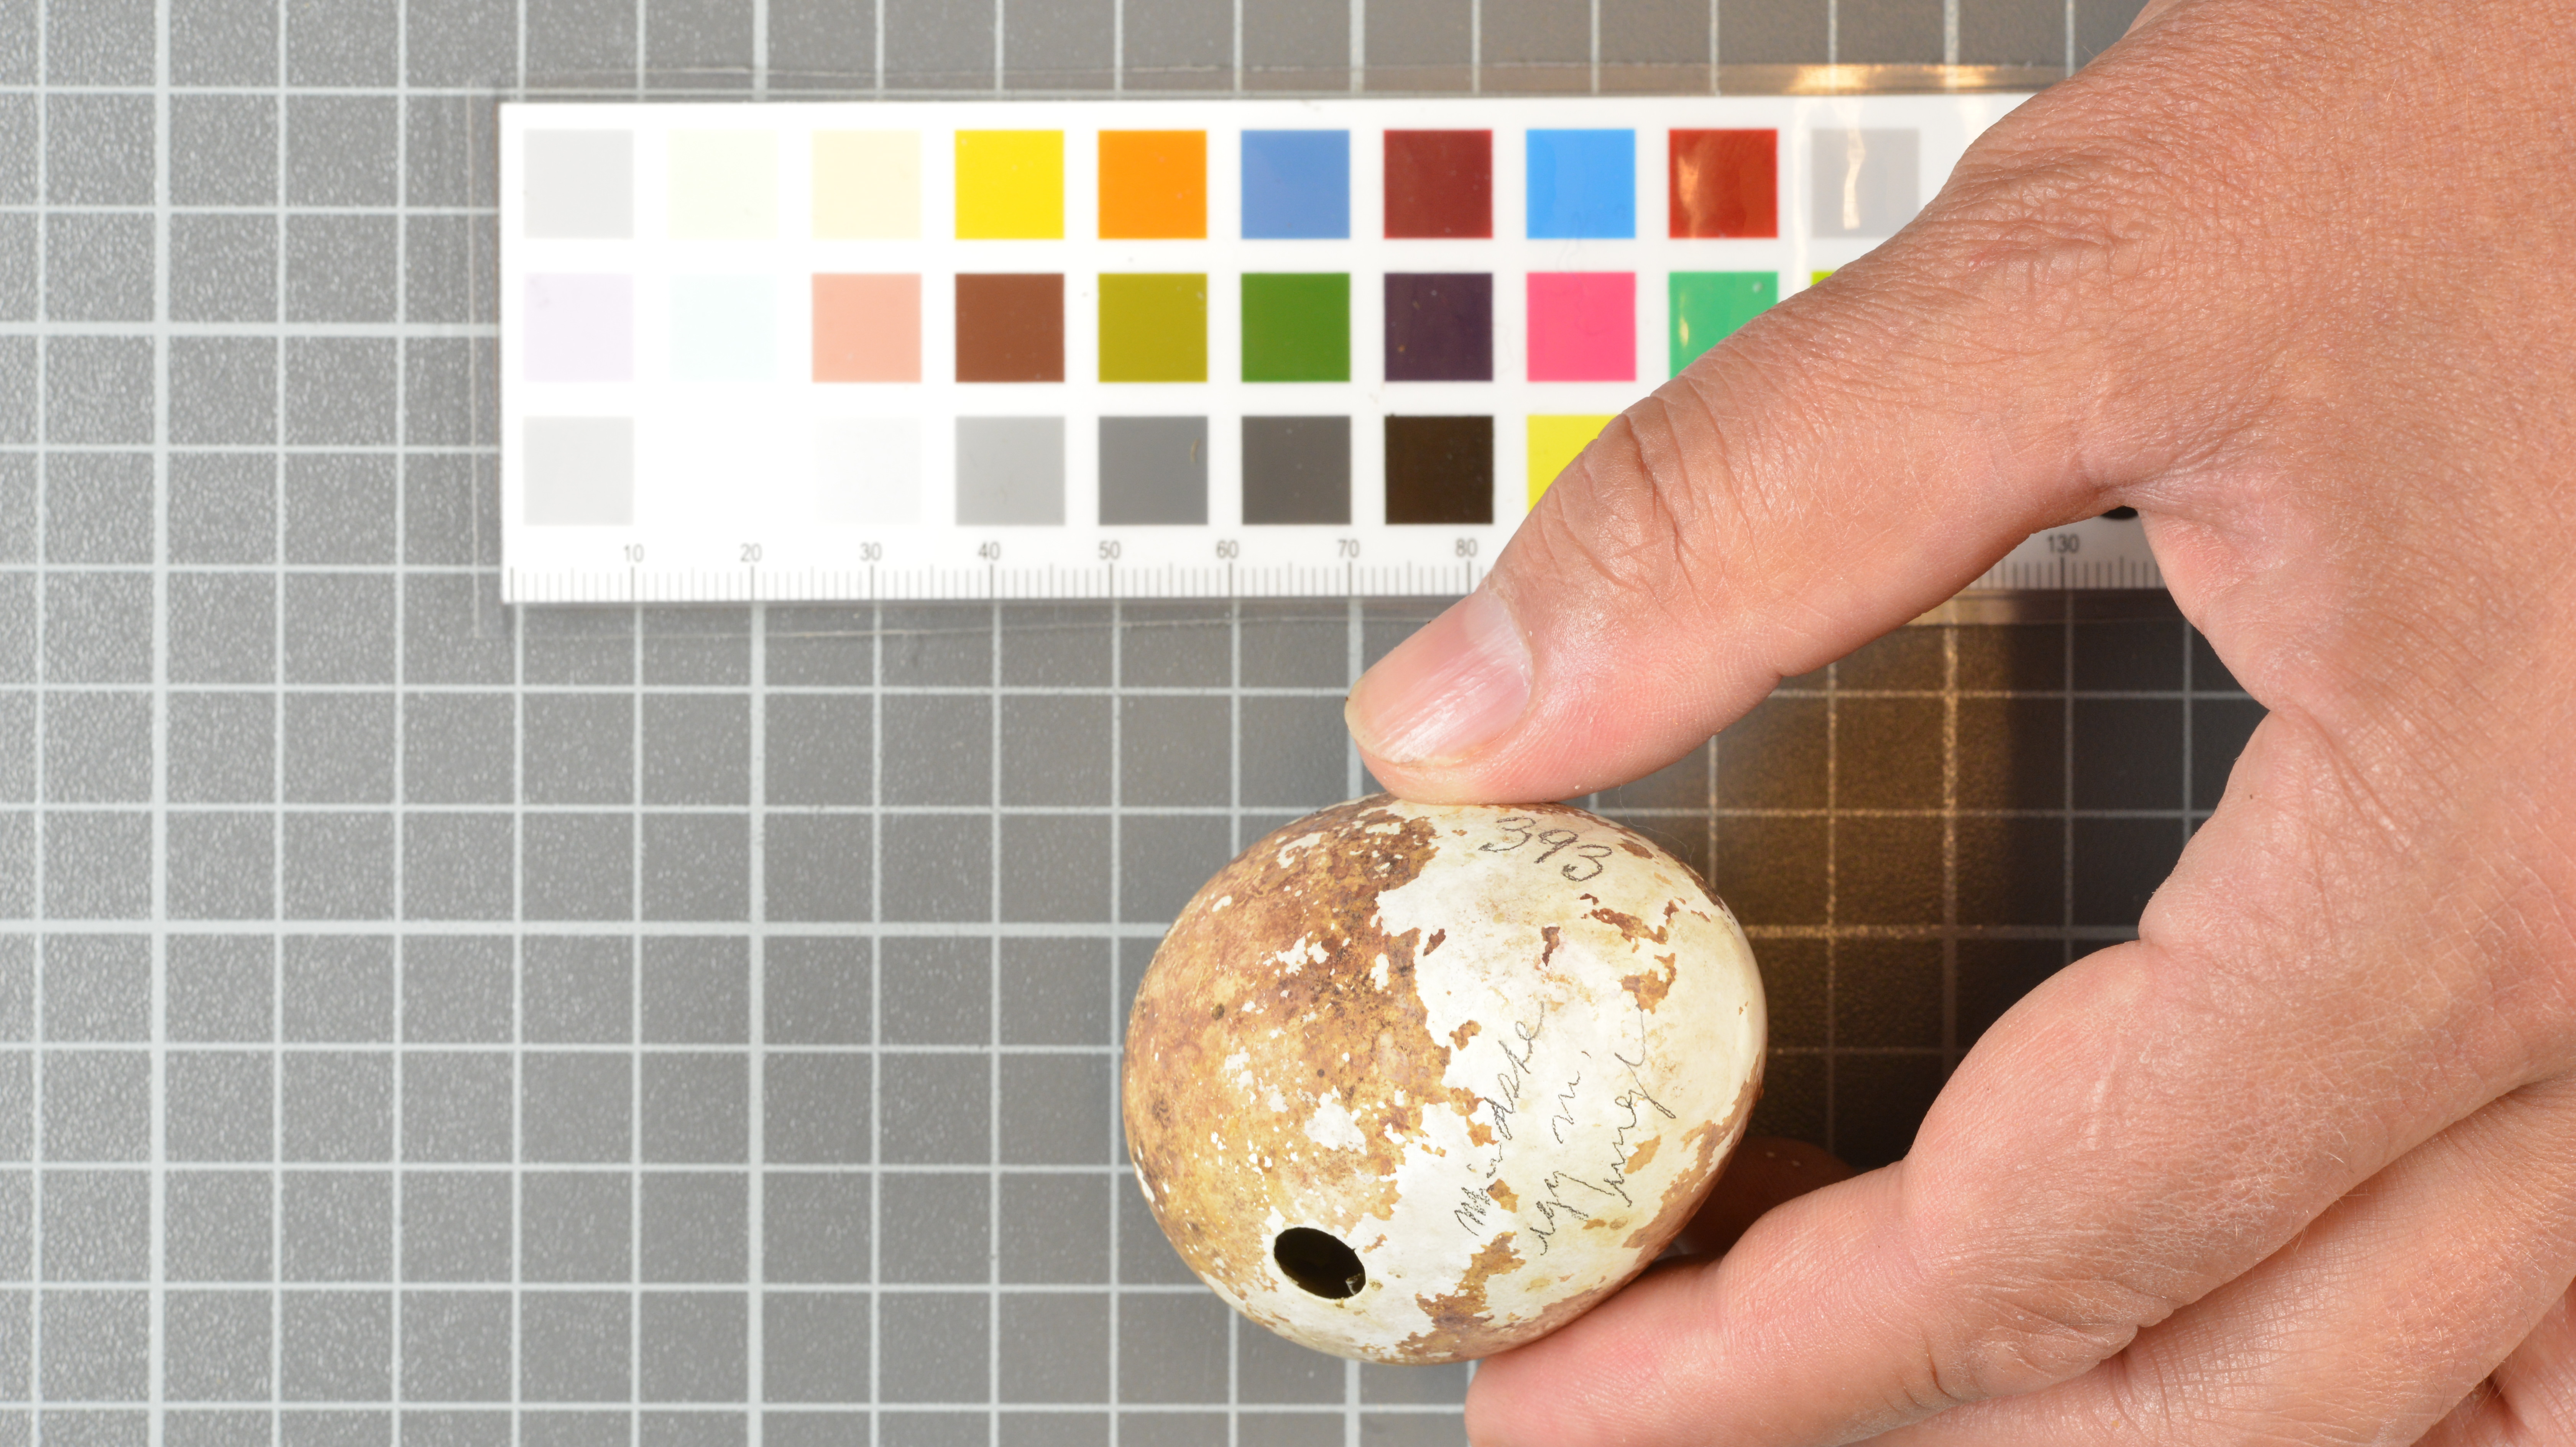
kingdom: Animalia
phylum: Chordata
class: Aves
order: Sphenisciformes
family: Spheniscidae
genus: Eudyptes
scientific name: Eudyptes moseleyi
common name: Northern rockhopper penguin
